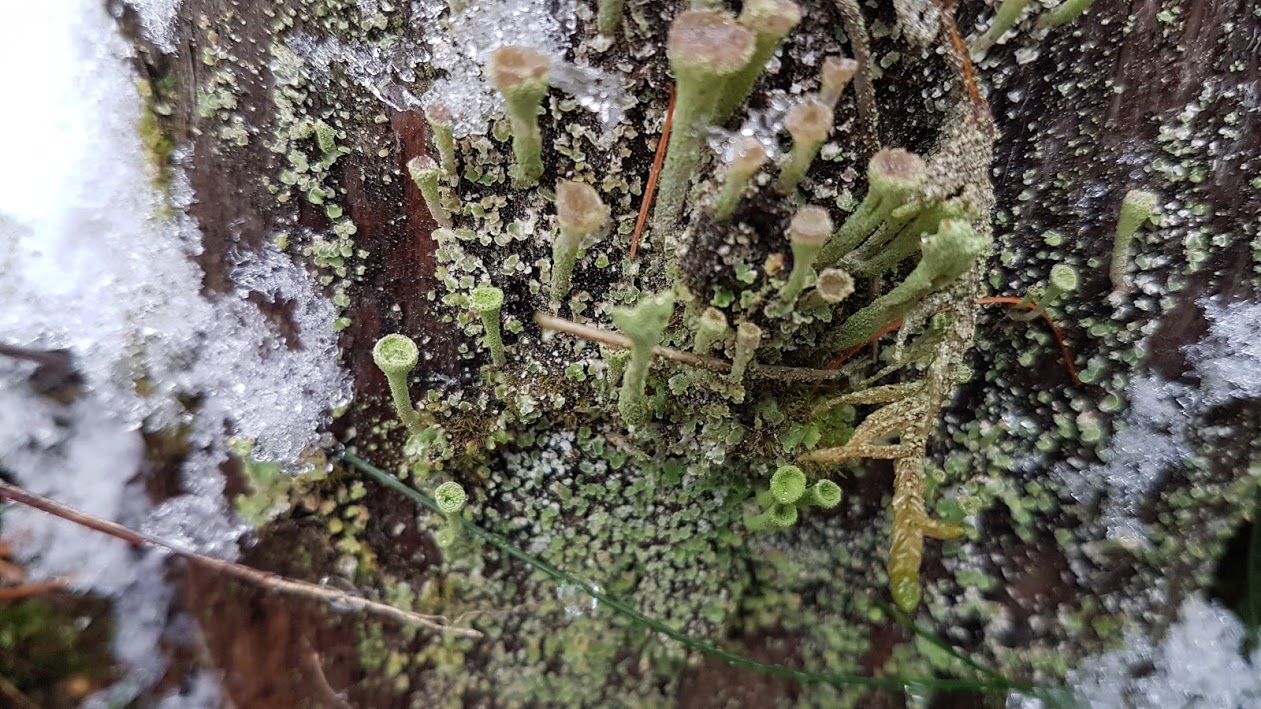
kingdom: Fungi
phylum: Ascomycota
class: Lecanoromycetes
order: Lecanorales
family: Cladoniaceae
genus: Cladonia
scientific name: Cladonia
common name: brungrøn bægerlav
